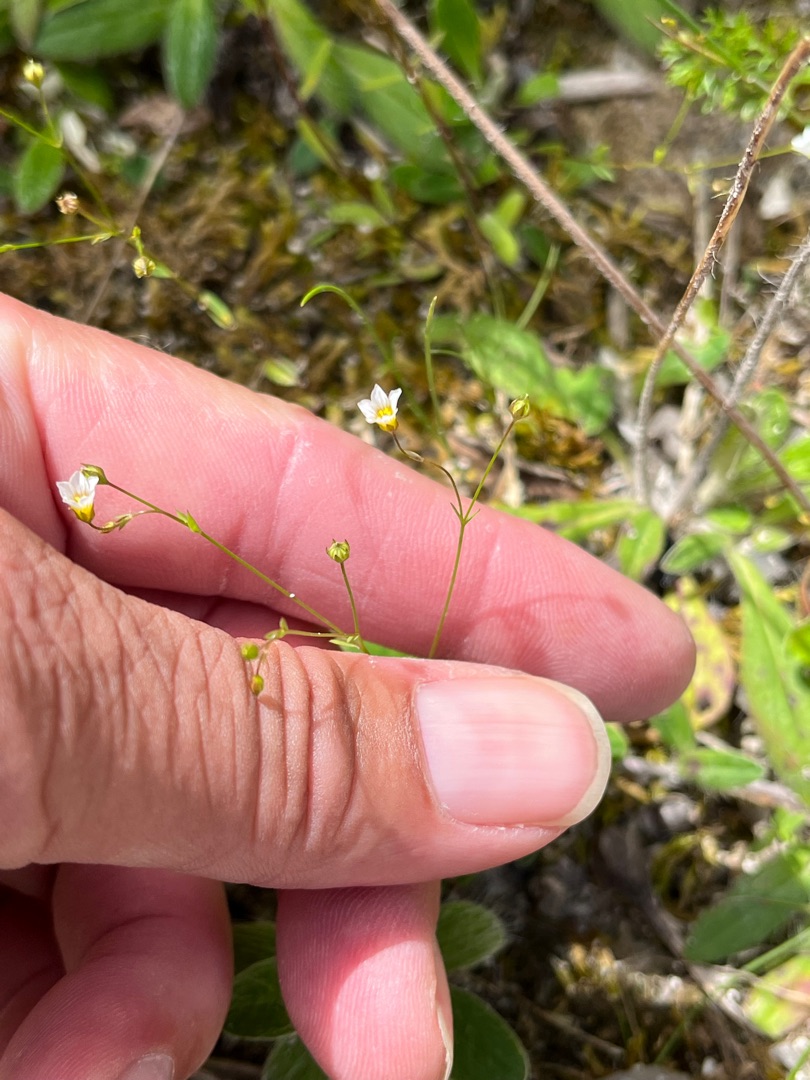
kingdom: Plantae
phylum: Tracheophyta
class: Magnoliopsida
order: Malpighiales
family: Linaceae
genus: Linum
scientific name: Linum catharticum
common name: Vild hør
